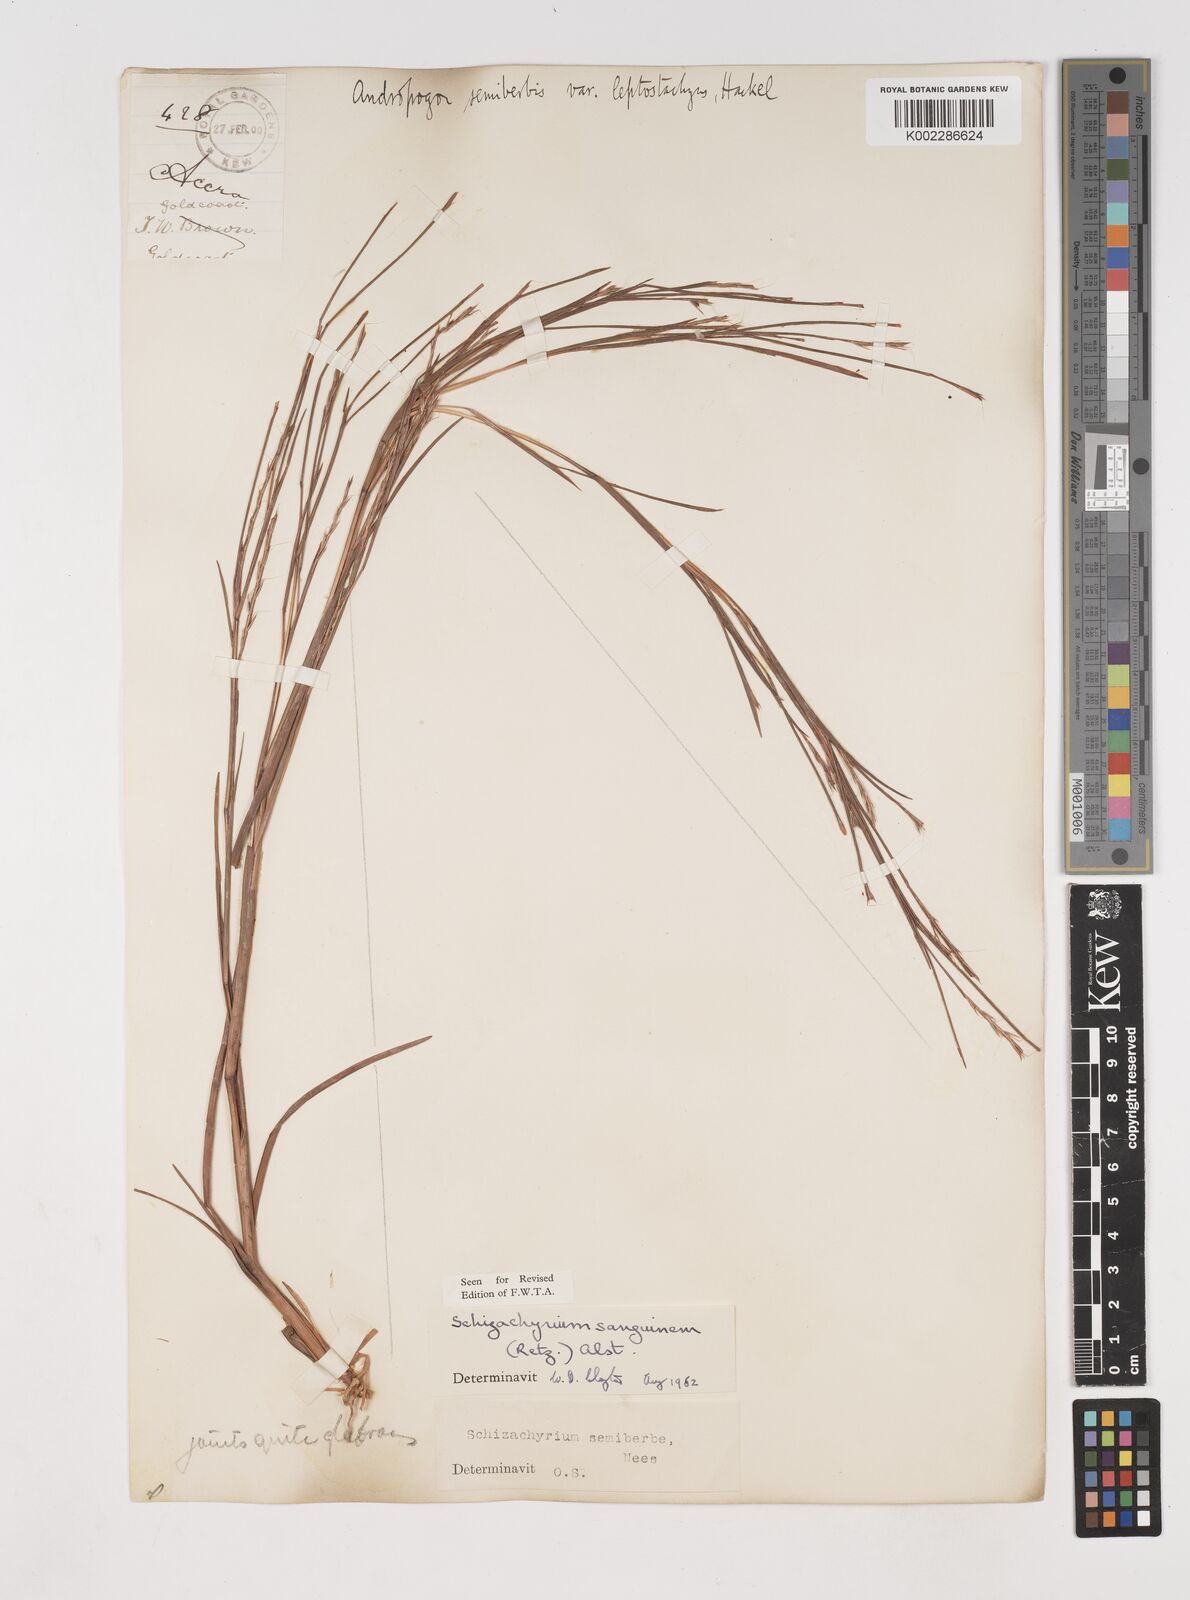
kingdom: Plantae
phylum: Tracheophyta
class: Liliopsida
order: Poales
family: Poaceae
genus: Schizachyrium
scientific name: Schizachyrium sanguineum
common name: Crimson bluestem
